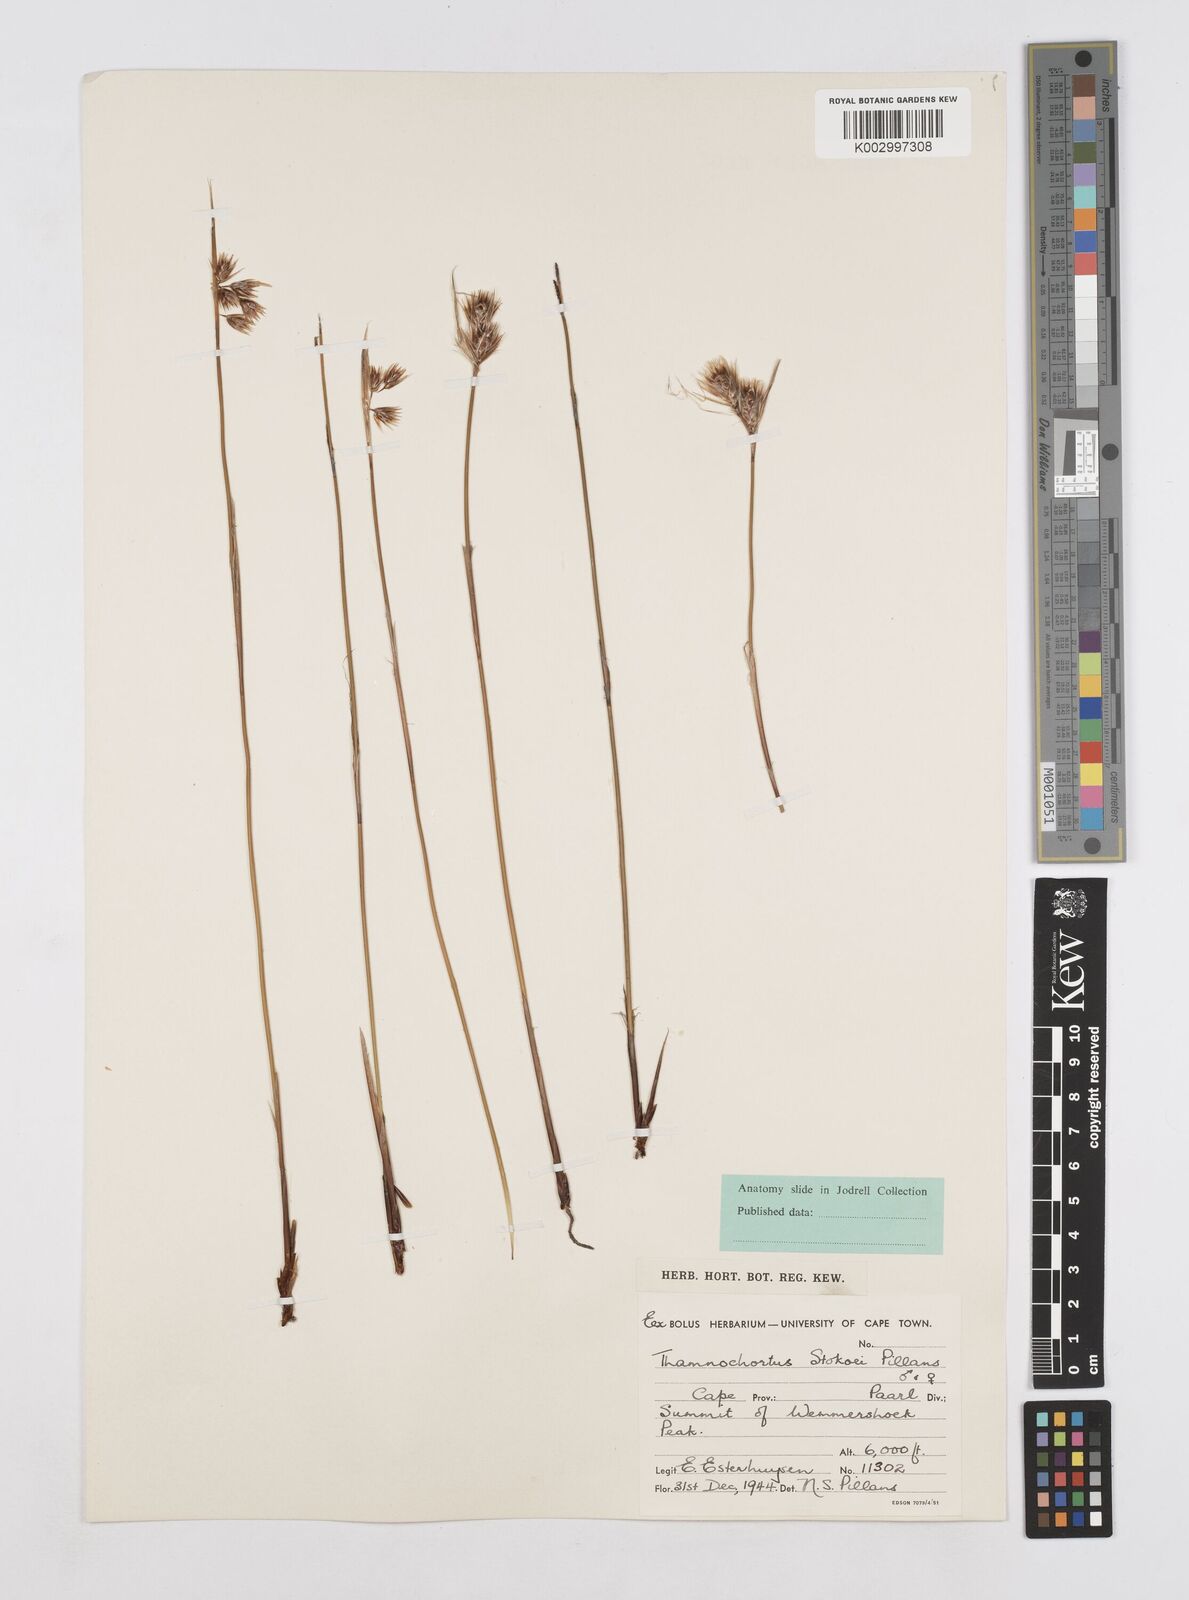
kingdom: Plantae
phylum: Tracheophyta
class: Liliopsida
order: Poales
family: Restionaceae
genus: Thamnochortus
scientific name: Thamnochortus stokoei
